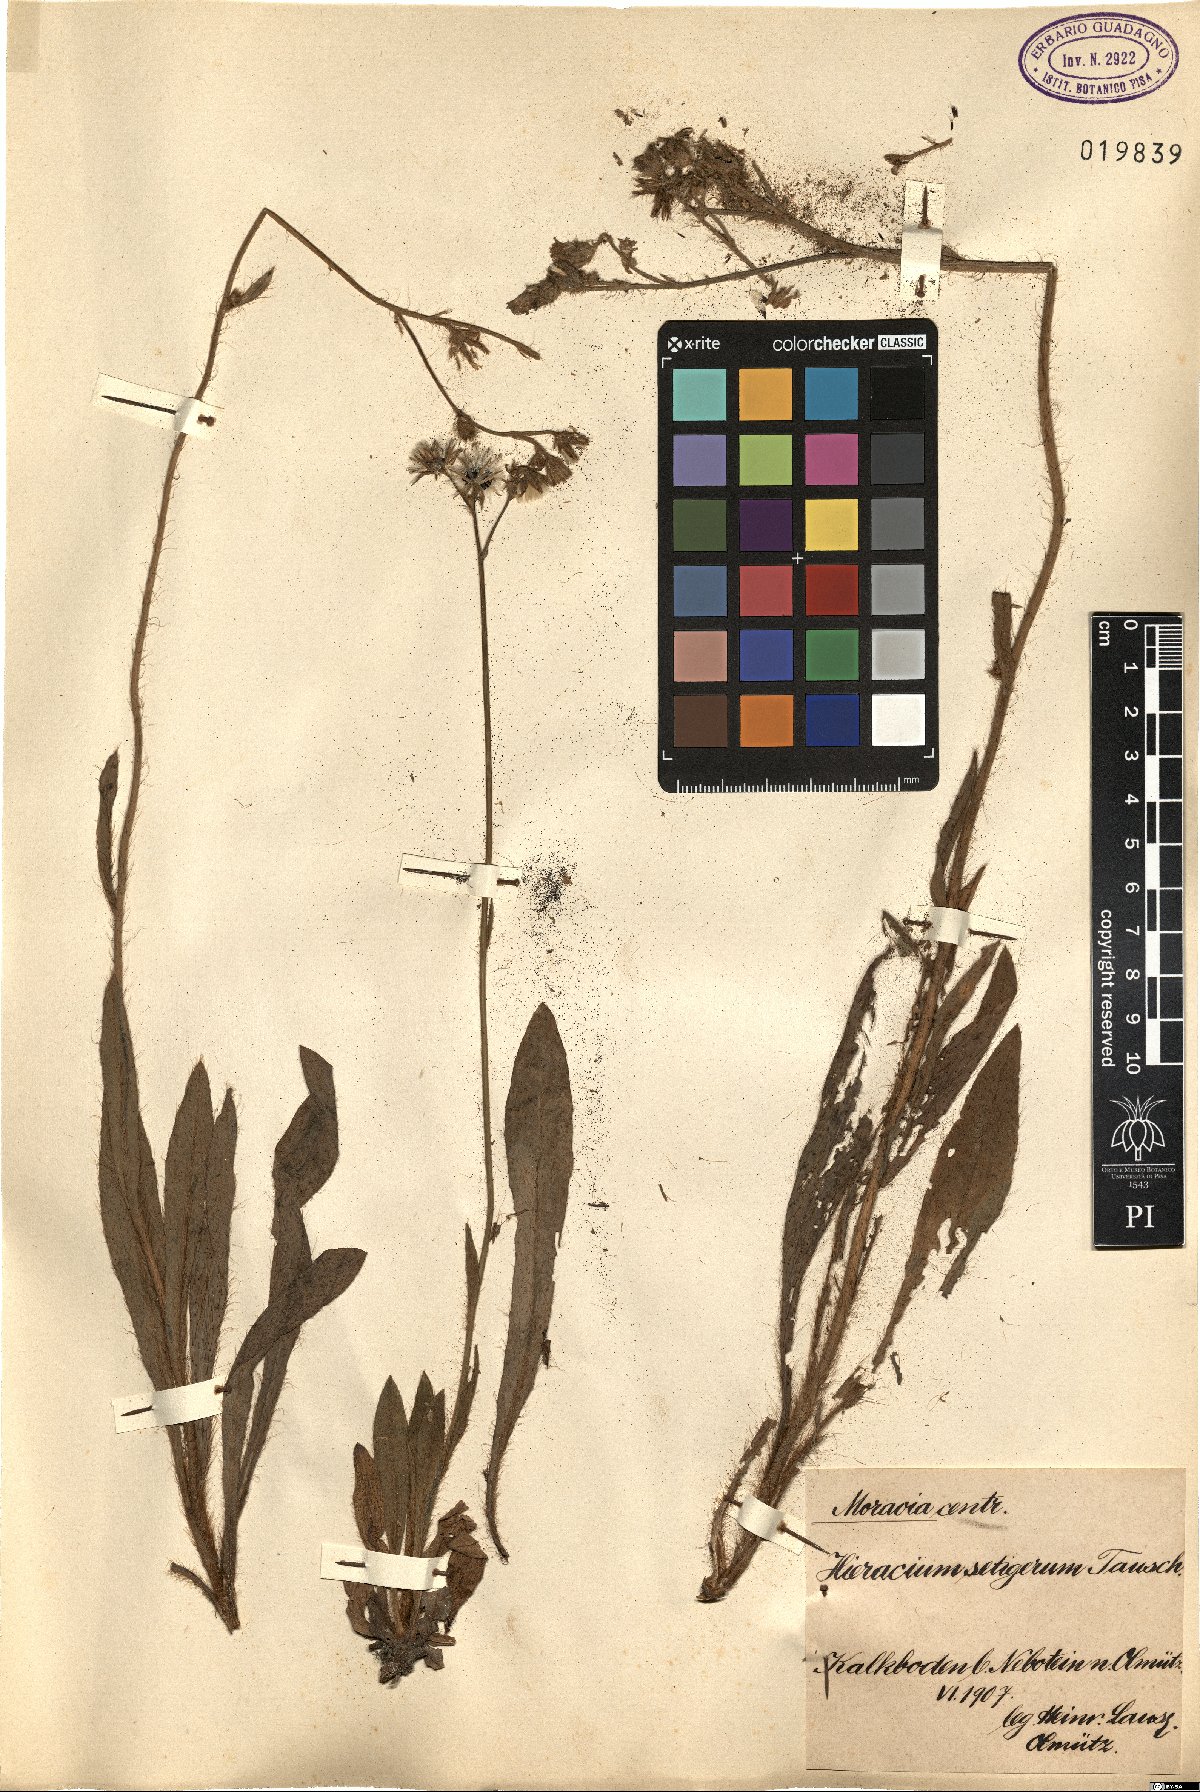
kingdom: Plantae
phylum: Tracheophyta
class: Magnoliopsida
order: Asterales
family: Asteraceae
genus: Pilosella
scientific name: Pilosella rothiana
